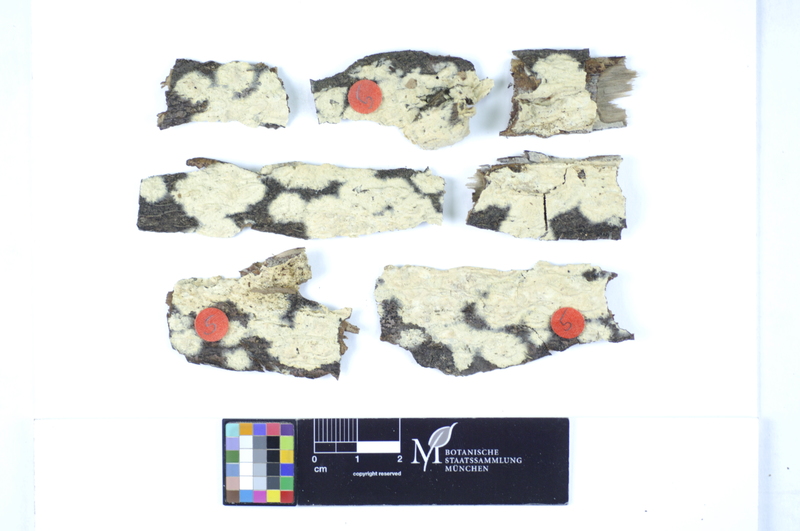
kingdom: Plantae
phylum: Tracheophyta
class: Magnoliopsida
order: Fagales
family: Betulaceae
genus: Corylus
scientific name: Corylus
